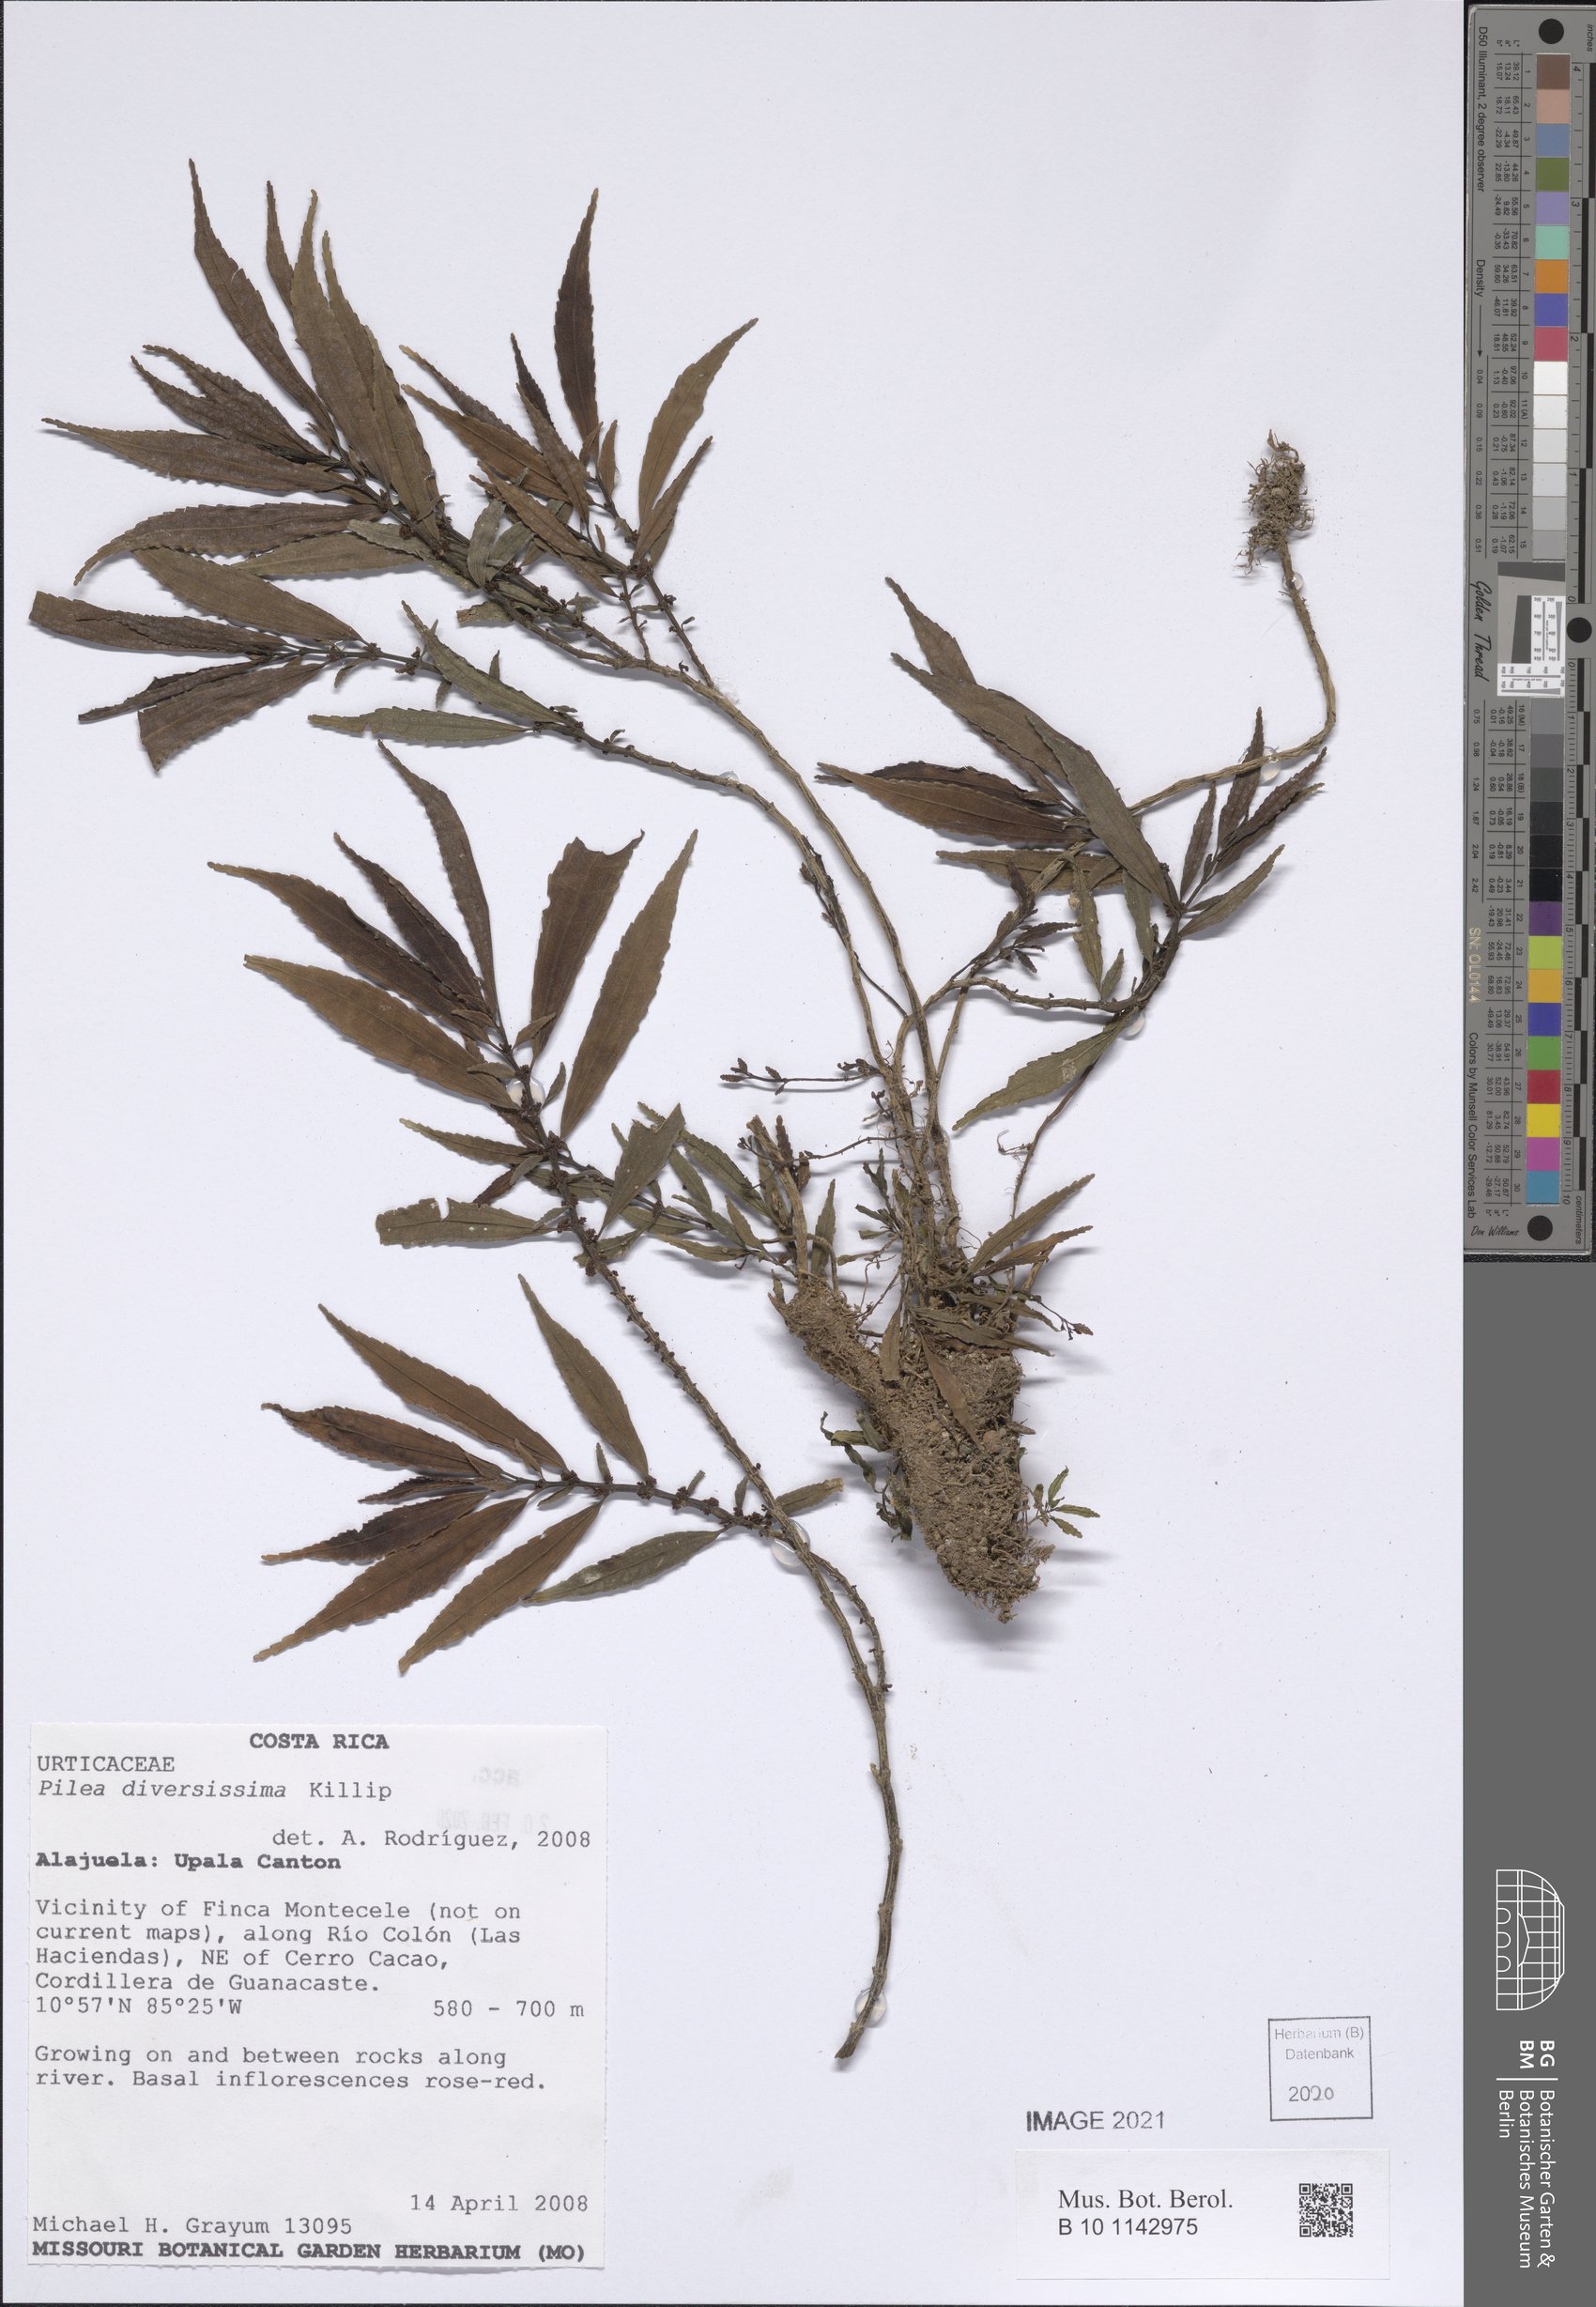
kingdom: Plantae
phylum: Tracheophyta
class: Magnoliopsida
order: Rosales
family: Urticaceae
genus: Pilea
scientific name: Pilea diversissima
